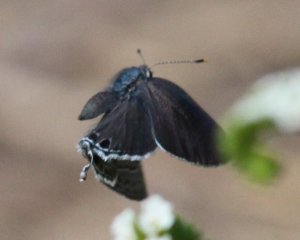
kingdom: Animalia
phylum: Arthropoda
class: Insecta
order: Lepidoptera
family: Lycaenidae
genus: Strymon
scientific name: Strymon alea
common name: Lacey's Scrub-Hairstreak
